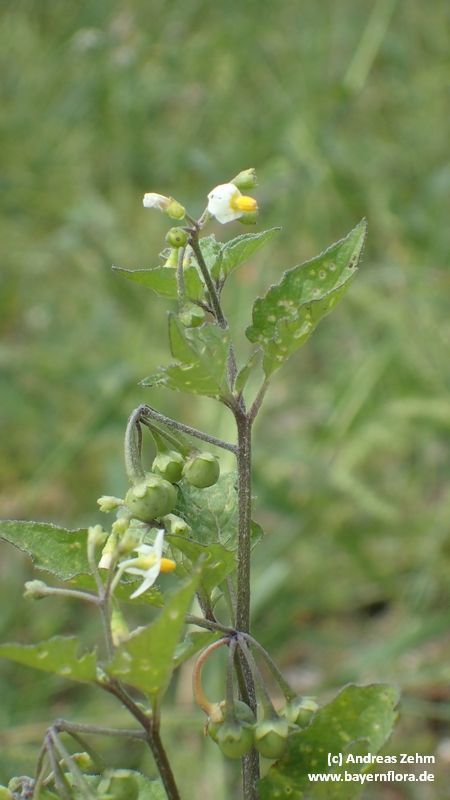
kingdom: Plantae
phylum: Tracheophyta
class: Magnoliopsida
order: Solanales
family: Solanaceae
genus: Solanum
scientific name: Solanum nigrum
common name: Black nightshade
